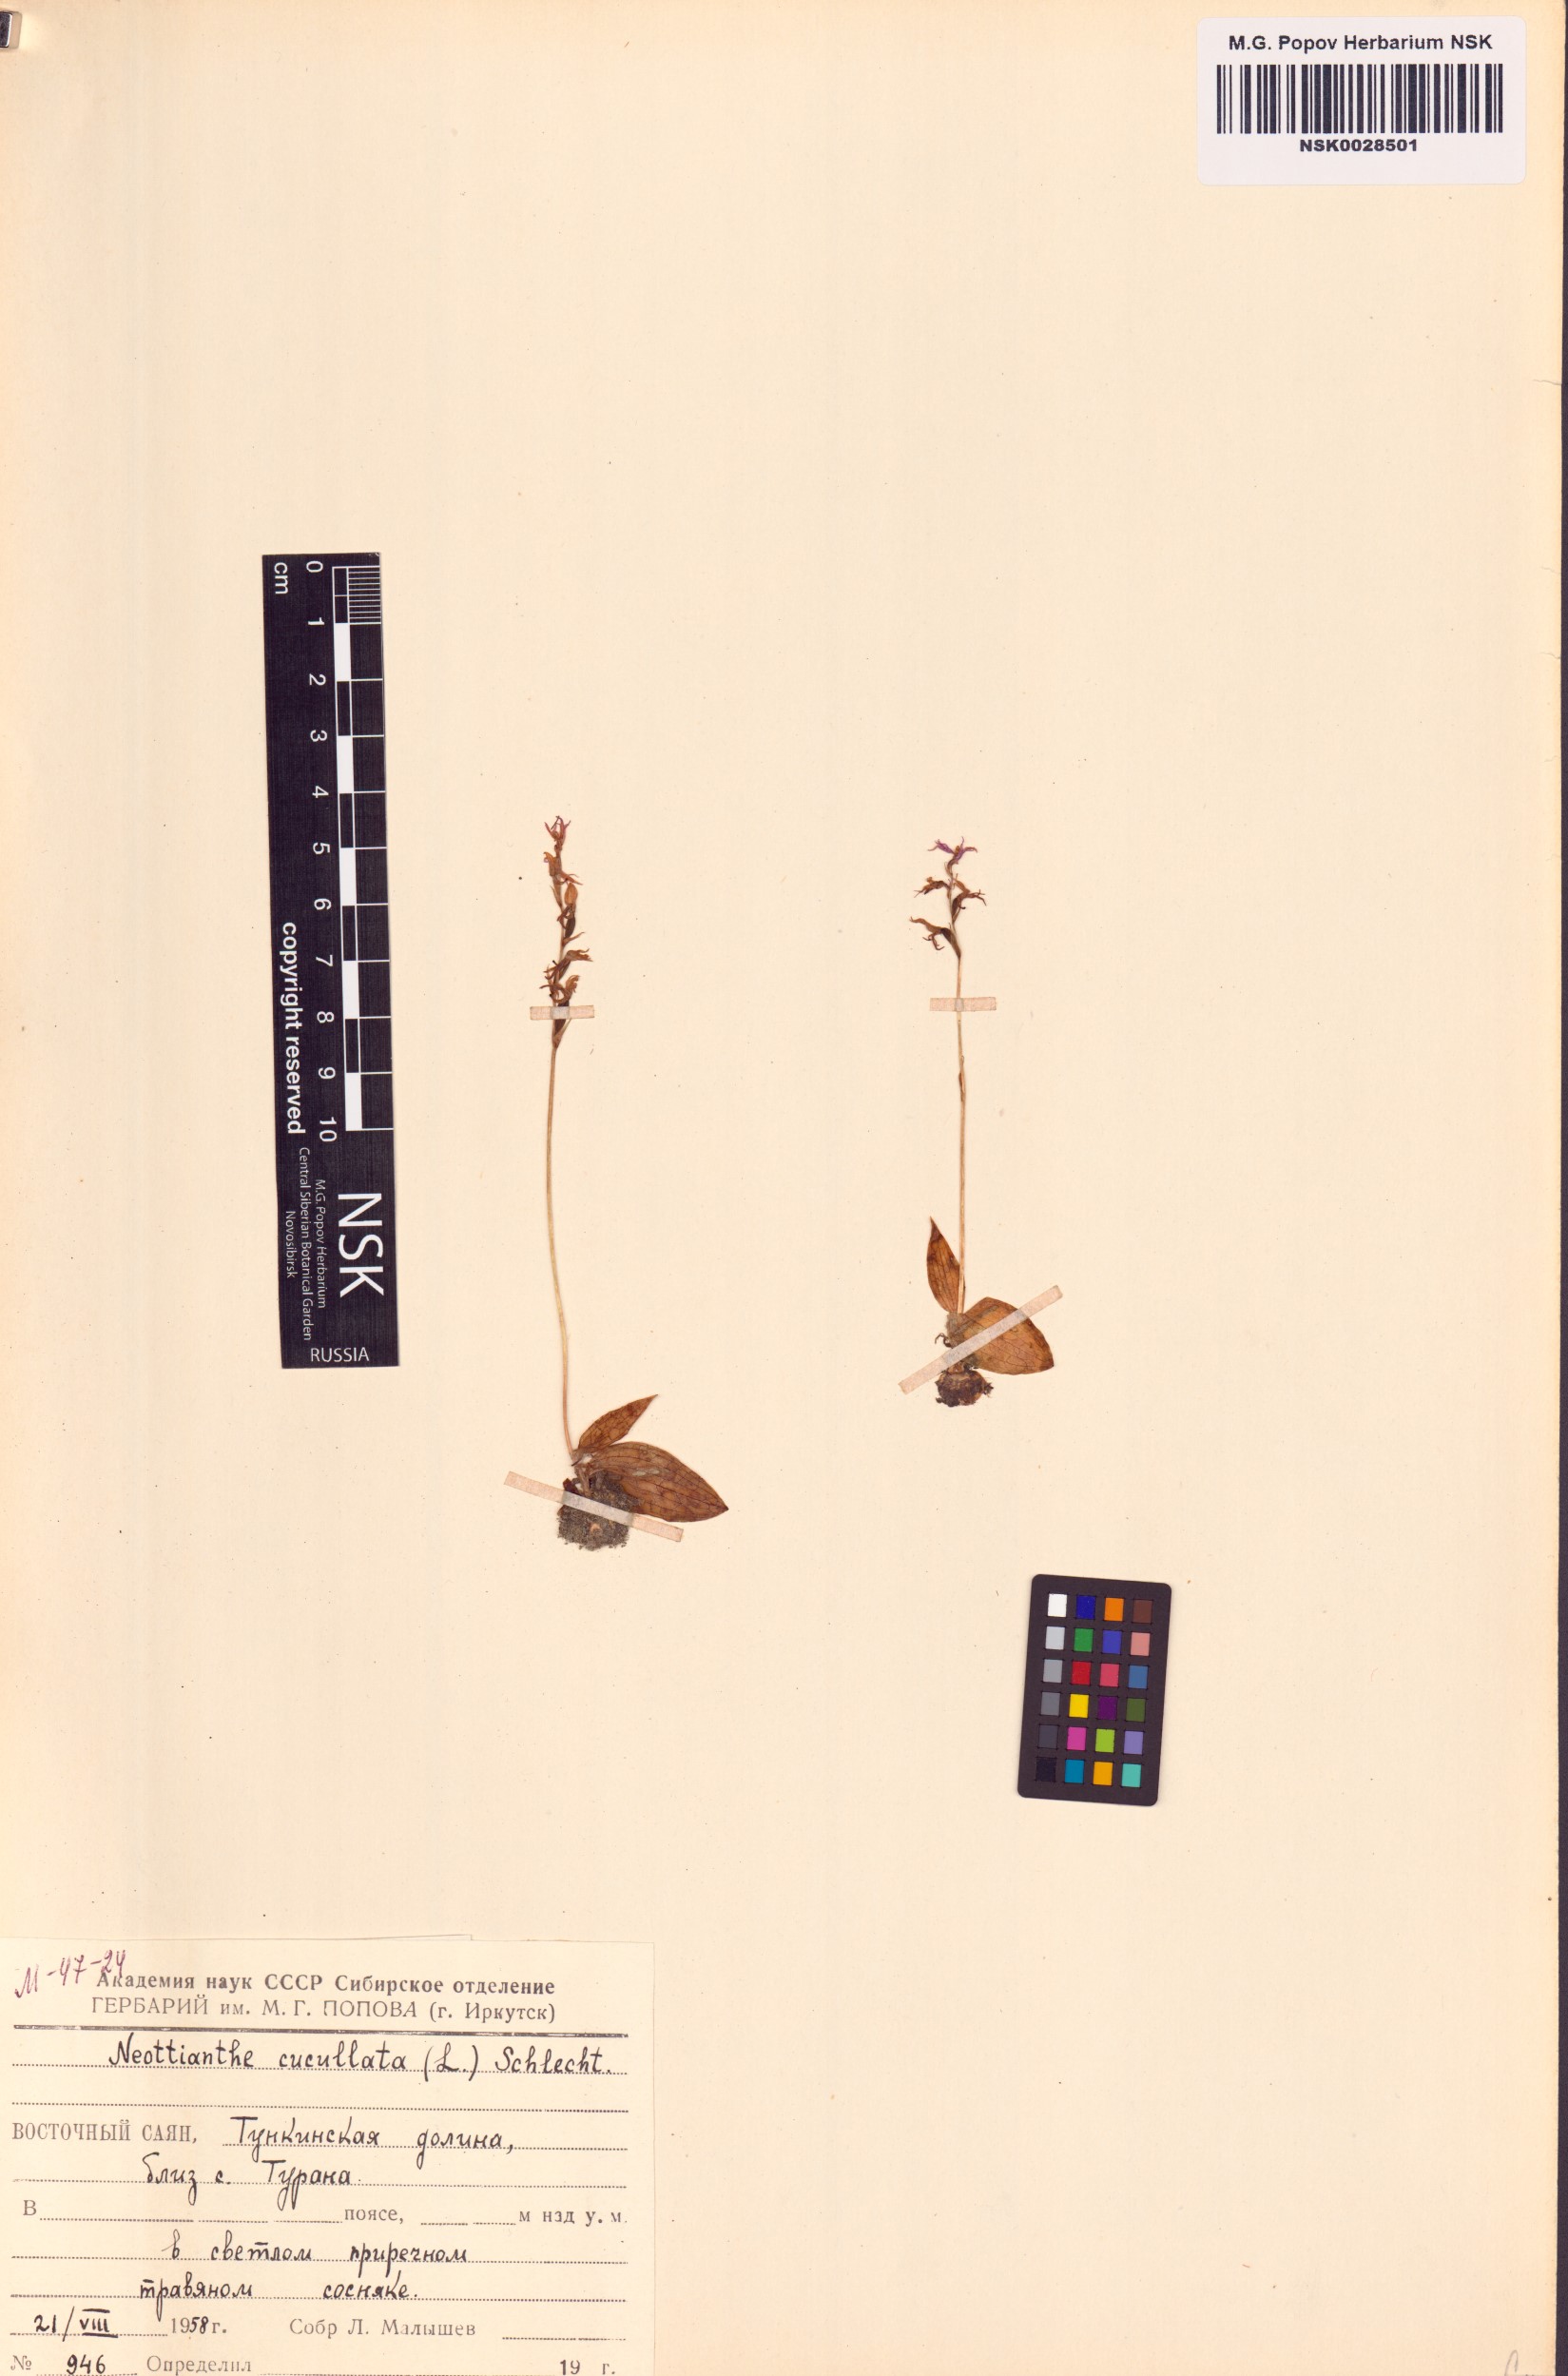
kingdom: Plantae
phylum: Tracheophyta
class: Liliopsida
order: Asparagales
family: Orchidaceae
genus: Hemipilia
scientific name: Hemipilia cucullata
